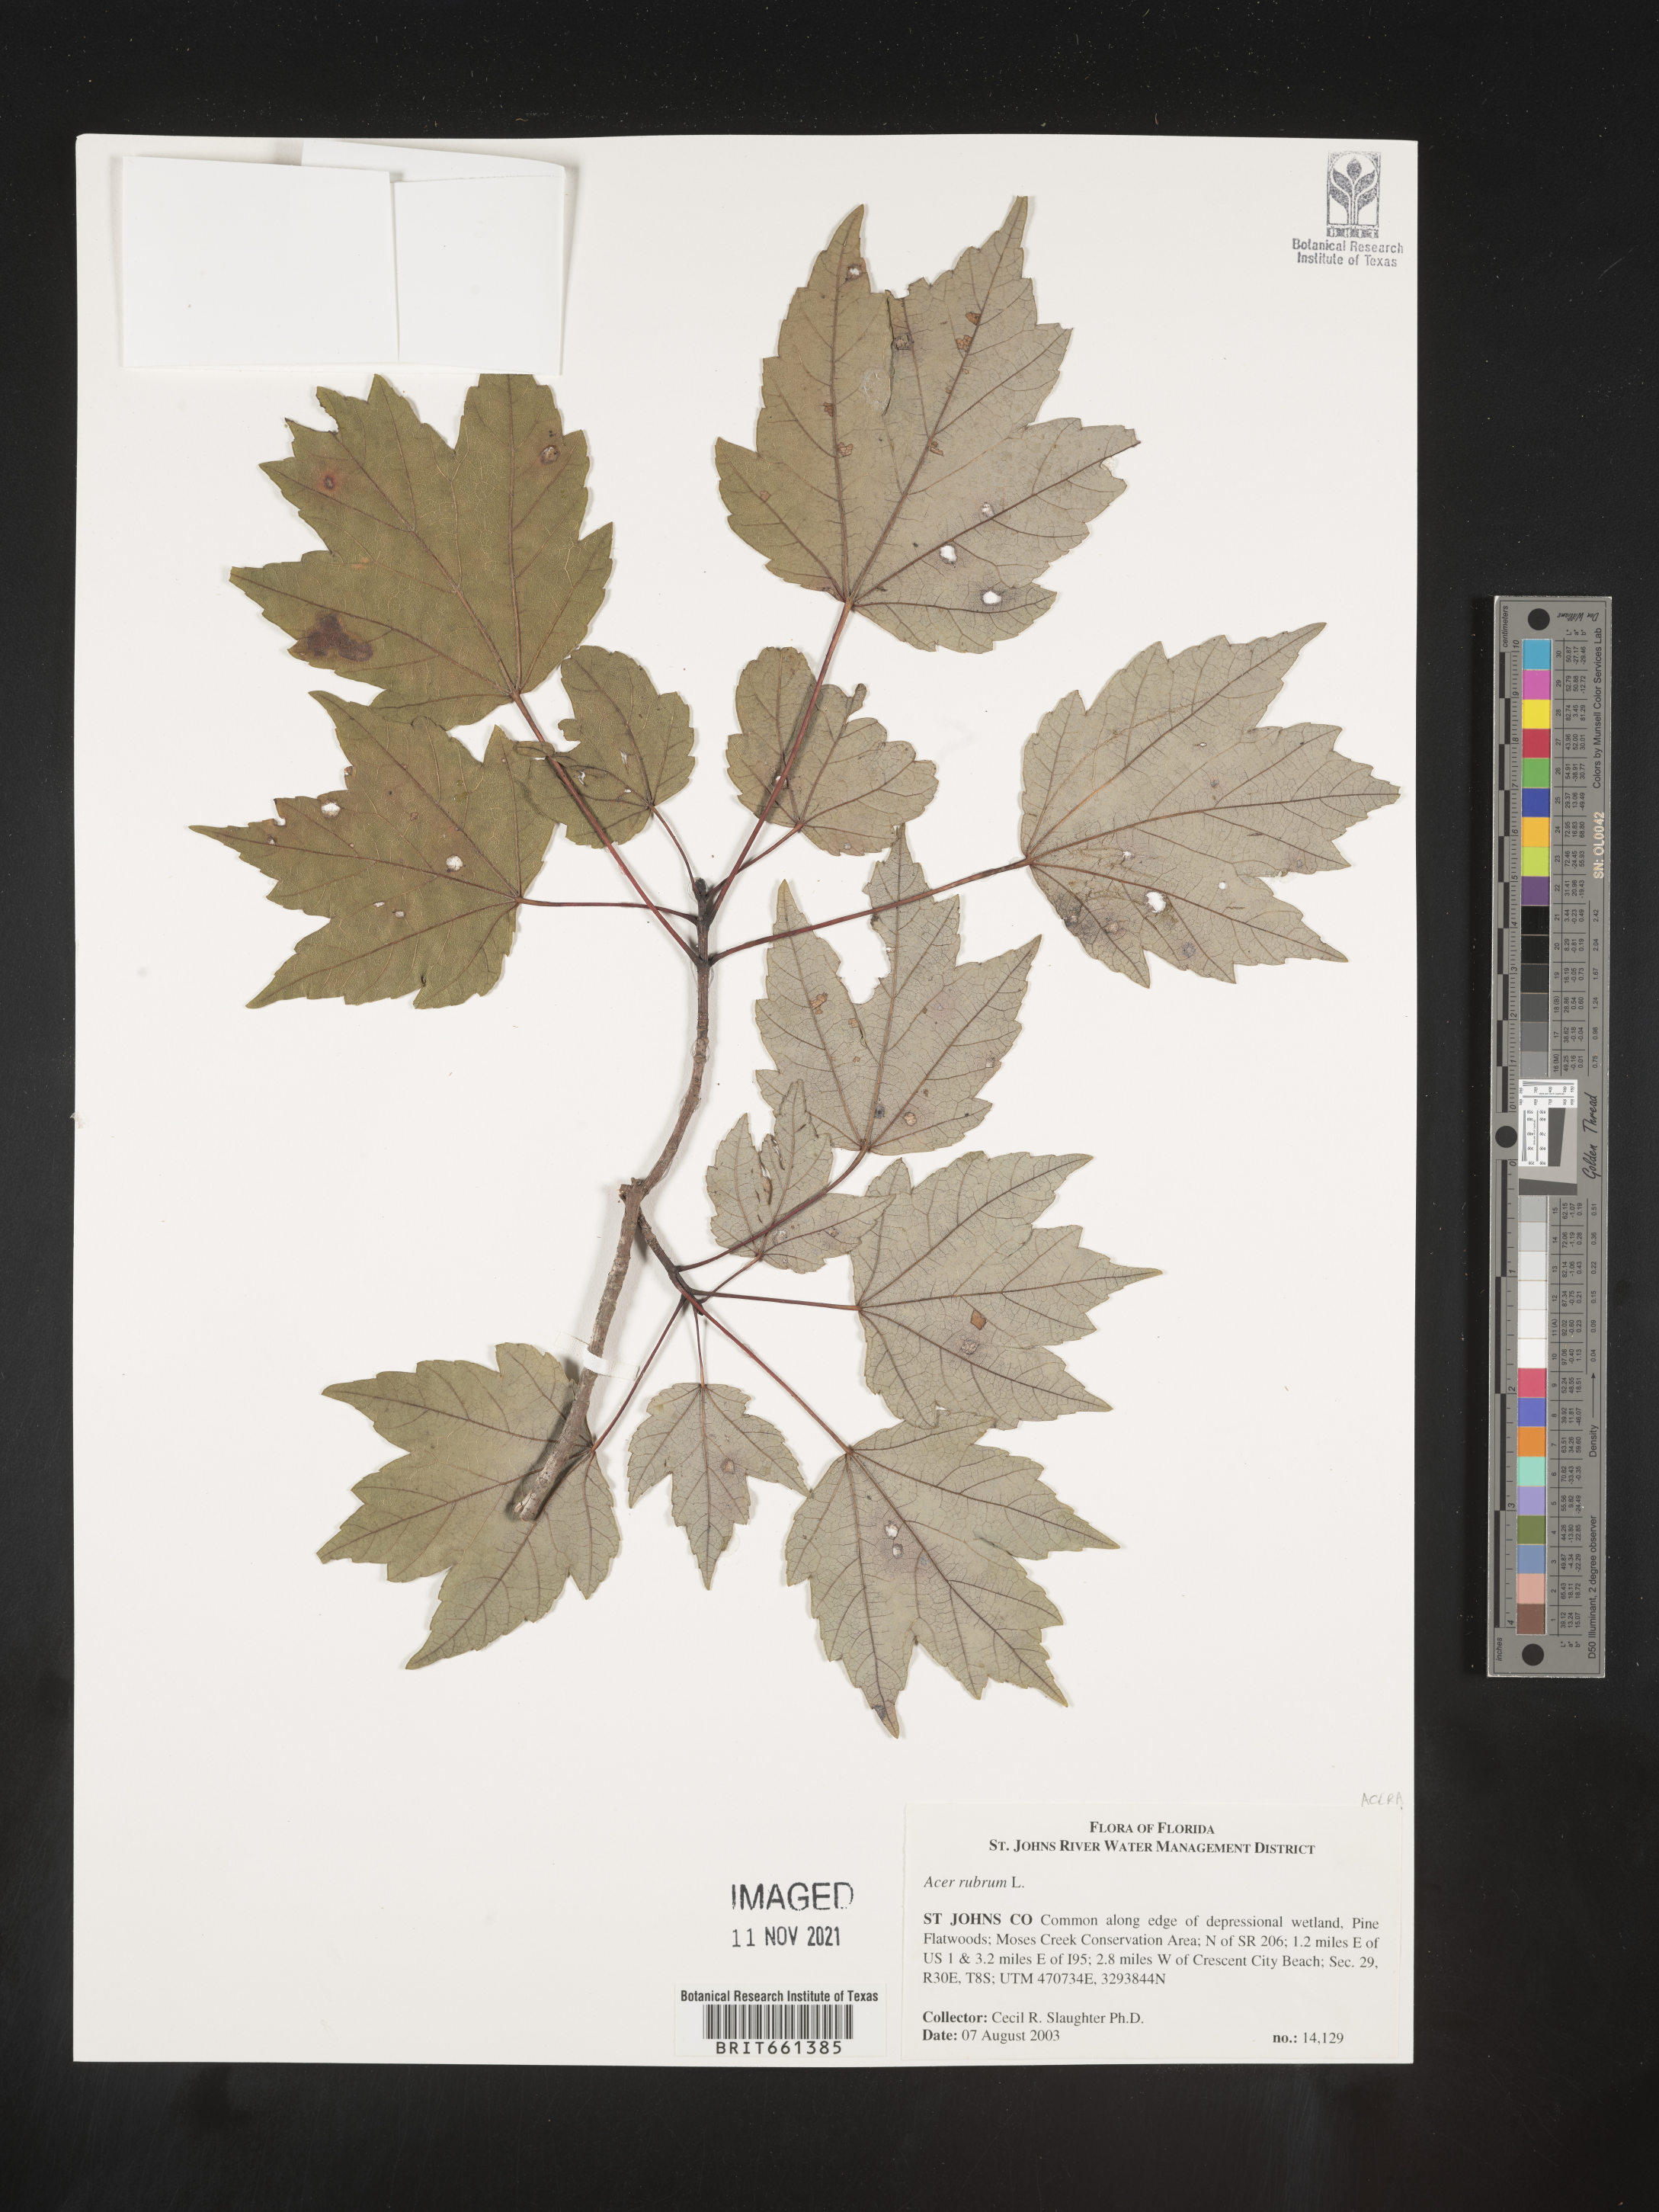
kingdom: Plantae
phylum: Tracheophyta
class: Magnoliopsida
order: Sapindales
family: Sapindaceae
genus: Acer
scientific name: Acer rubrum
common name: Red maple
